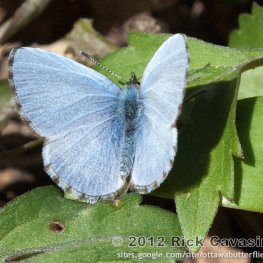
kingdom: Animalia
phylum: Arthropoda
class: Insecta
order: Lepidoptera
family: Lycaenidae
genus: Celastrina
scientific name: Celastrina lucia
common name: Northern Spring Azure
